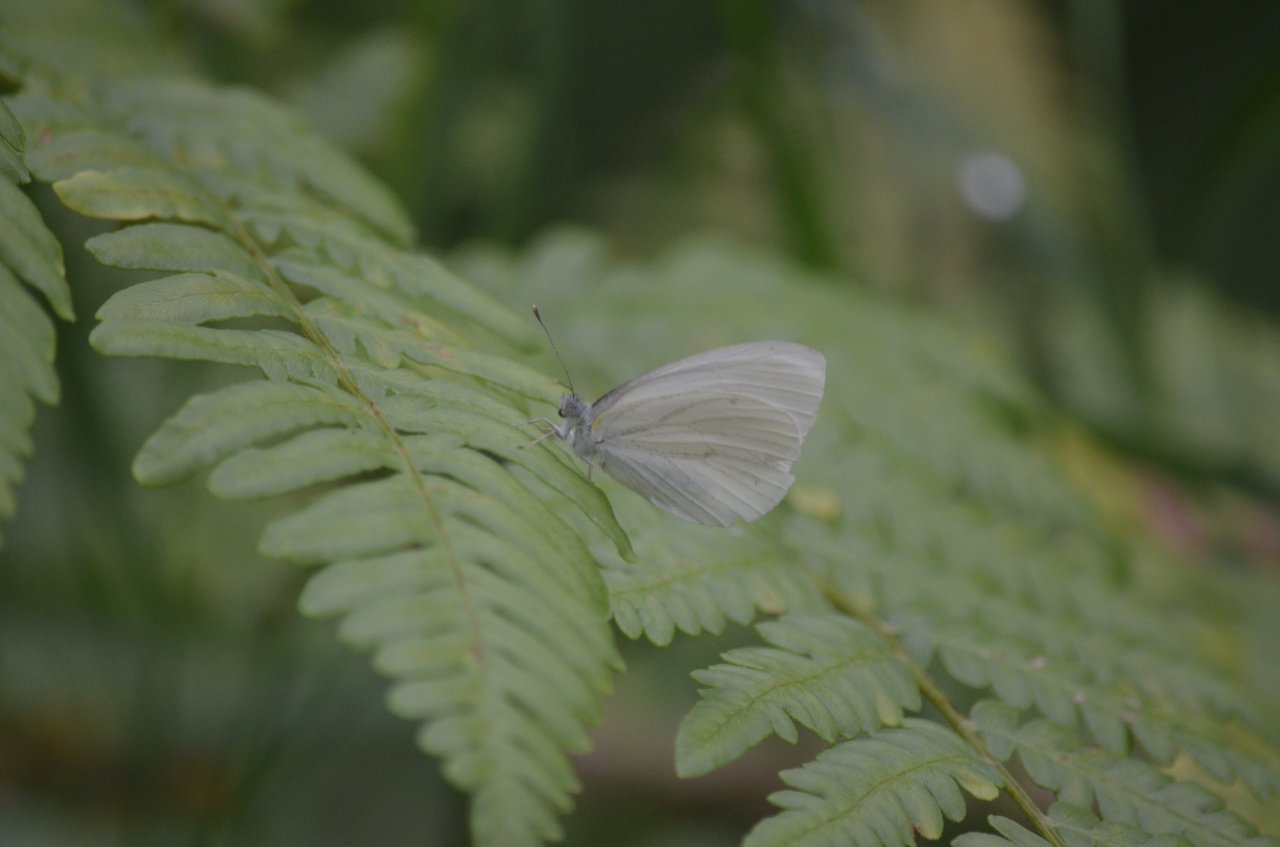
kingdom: Animalia
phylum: Arthropoda
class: Insecta
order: Lepidoptera
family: Pieridae
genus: Pieris
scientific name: Pieris oleracea
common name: Mustard White
